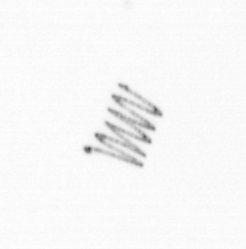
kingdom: Chromista
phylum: Ochrophyta
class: Bacillariophyceae
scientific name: Bacillariophyceae
